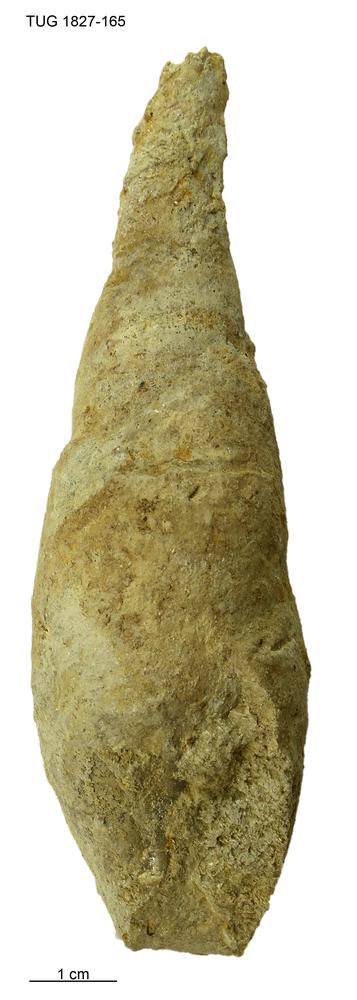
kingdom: Animalia
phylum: Mollusca
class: Gastropoda
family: Subulitidae
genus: Subulites
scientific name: Subulites
